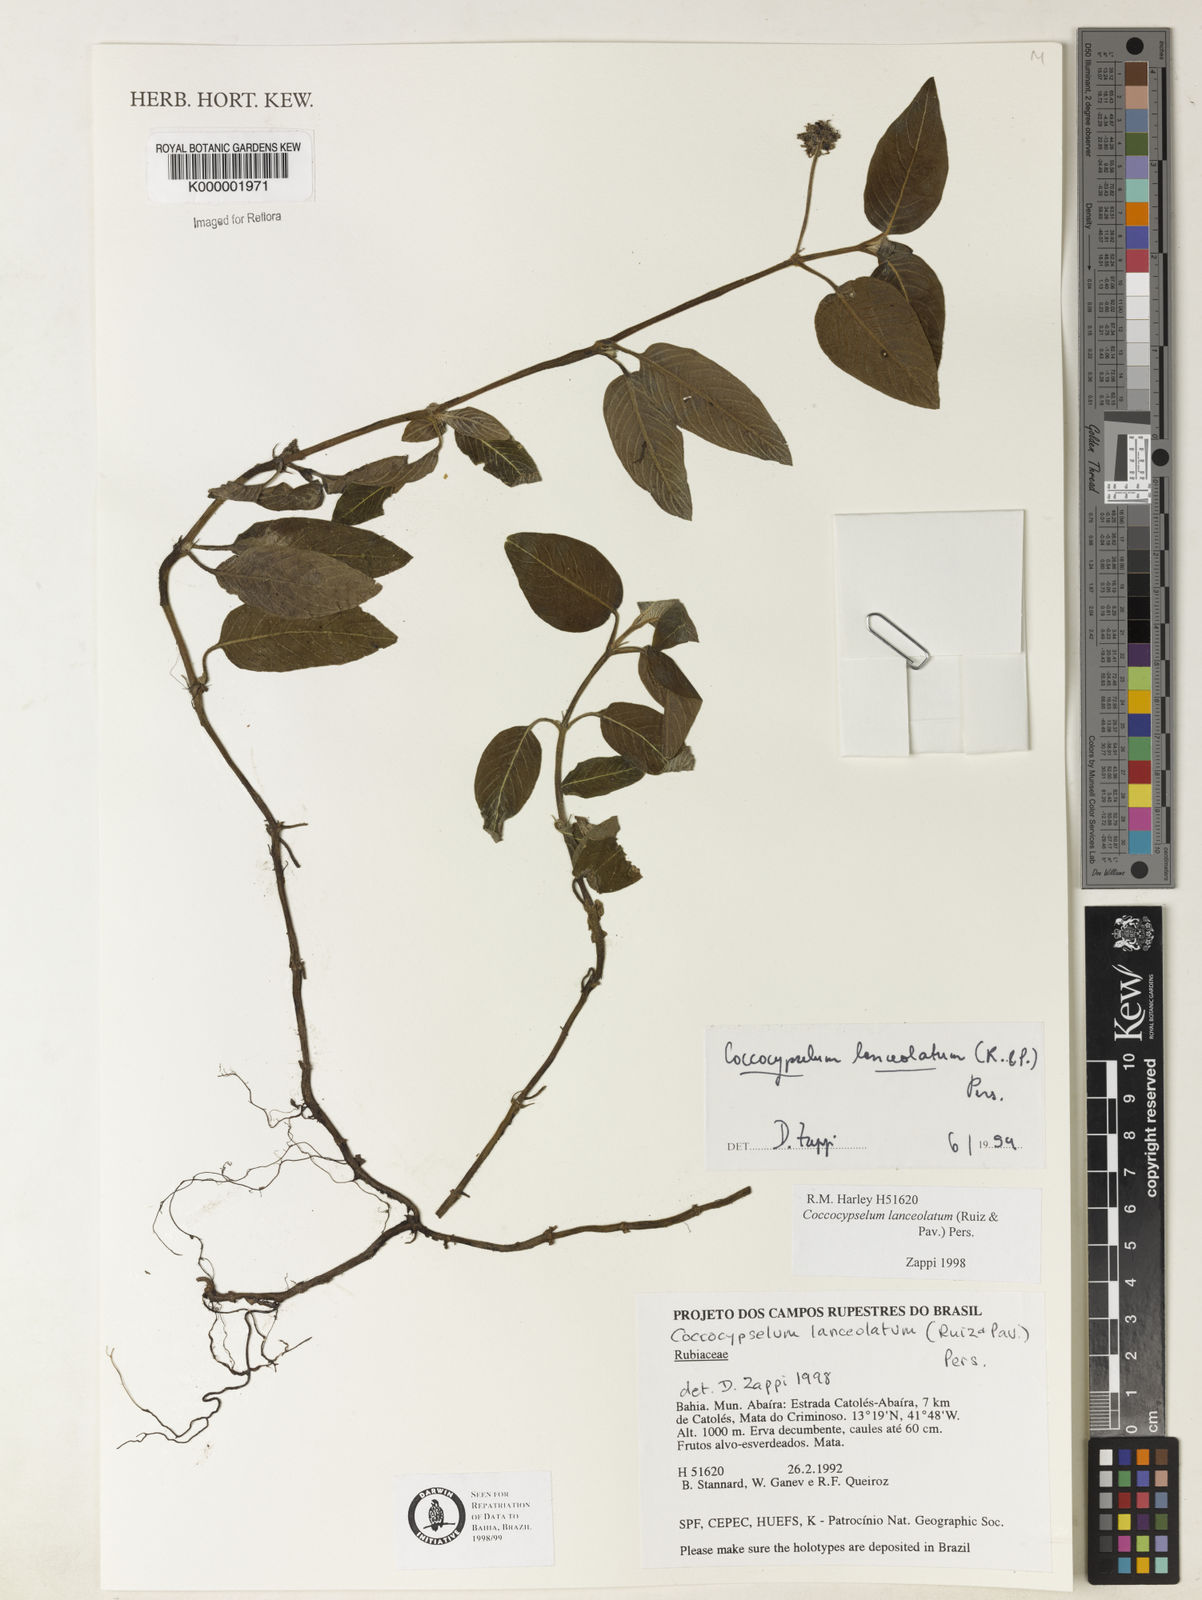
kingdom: Plantae
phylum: Tracheophyta
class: Magnoliopsida
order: Gentianales
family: Rubiaceae
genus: Coccocypselum
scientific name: Coccocypselum lanceolatum
